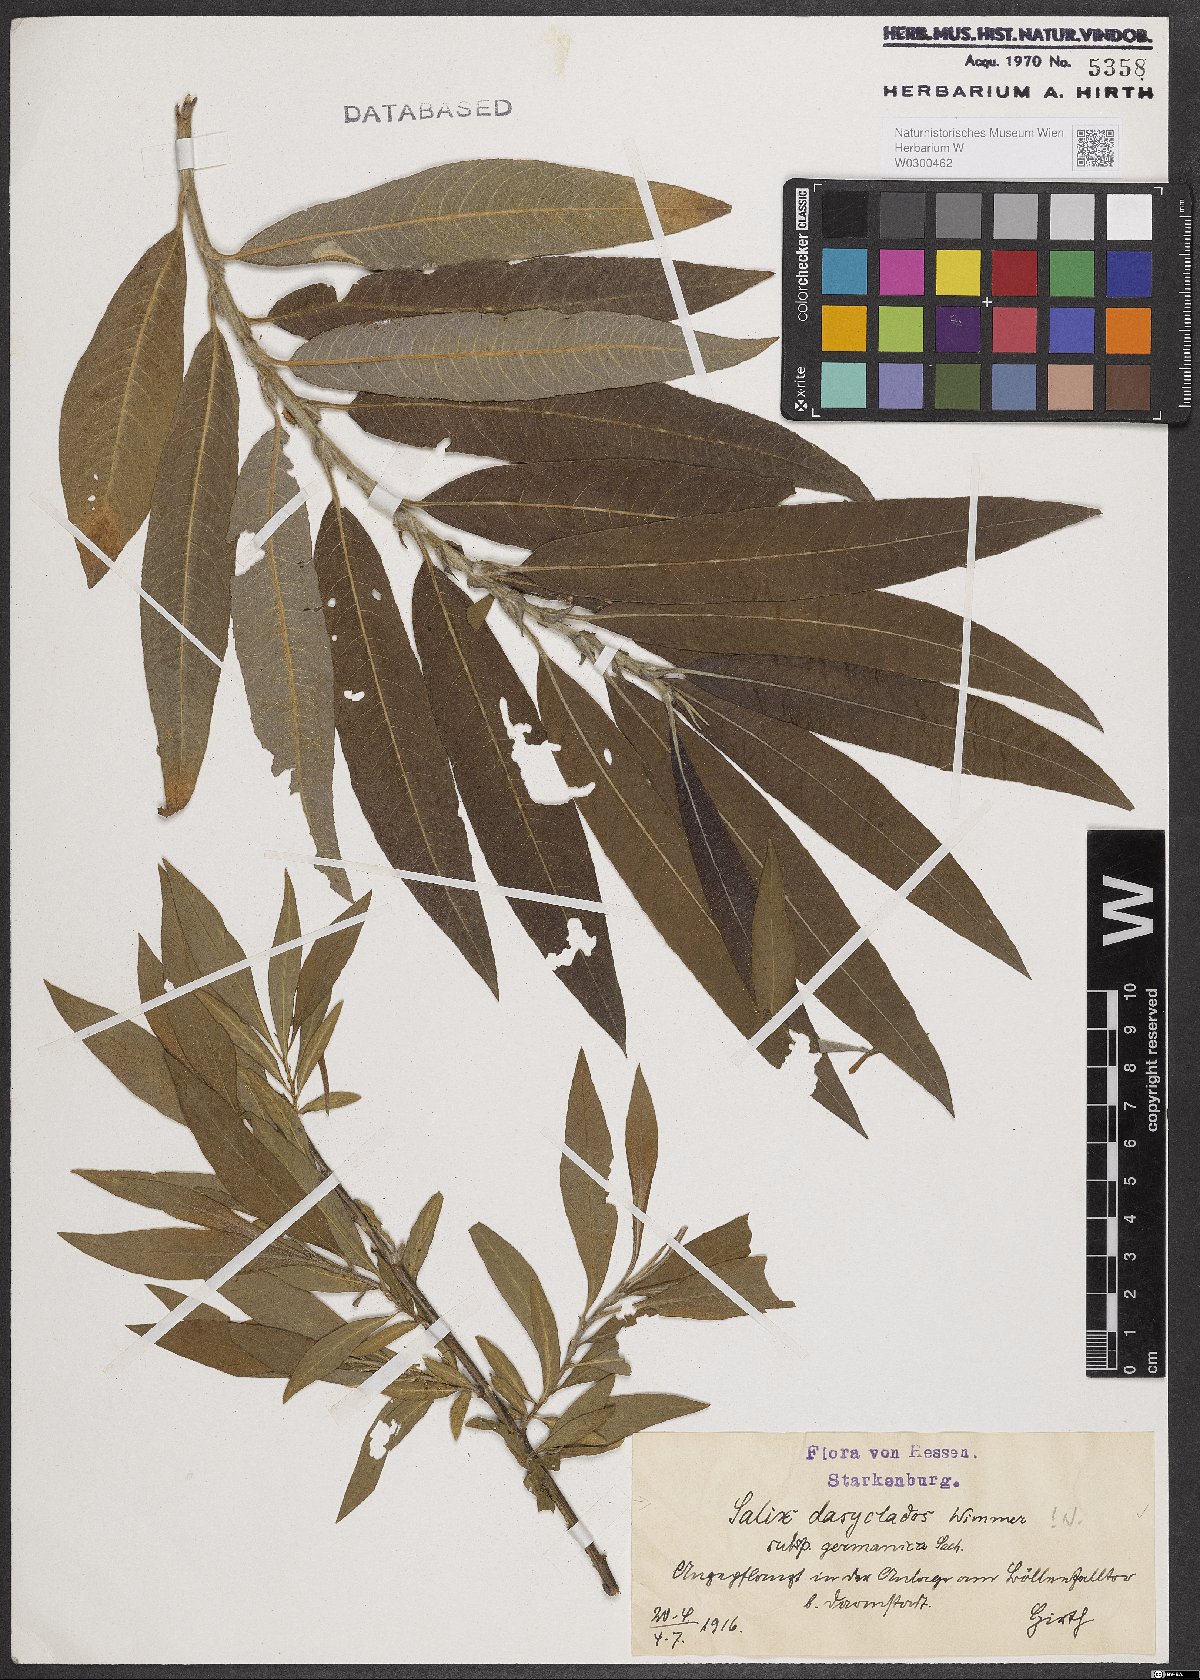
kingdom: Plantae
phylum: Tracheophyta
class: Magnoliopsida
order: Malpighiales
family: Salicaceae
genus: Salix
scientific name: Salix gmelinii
